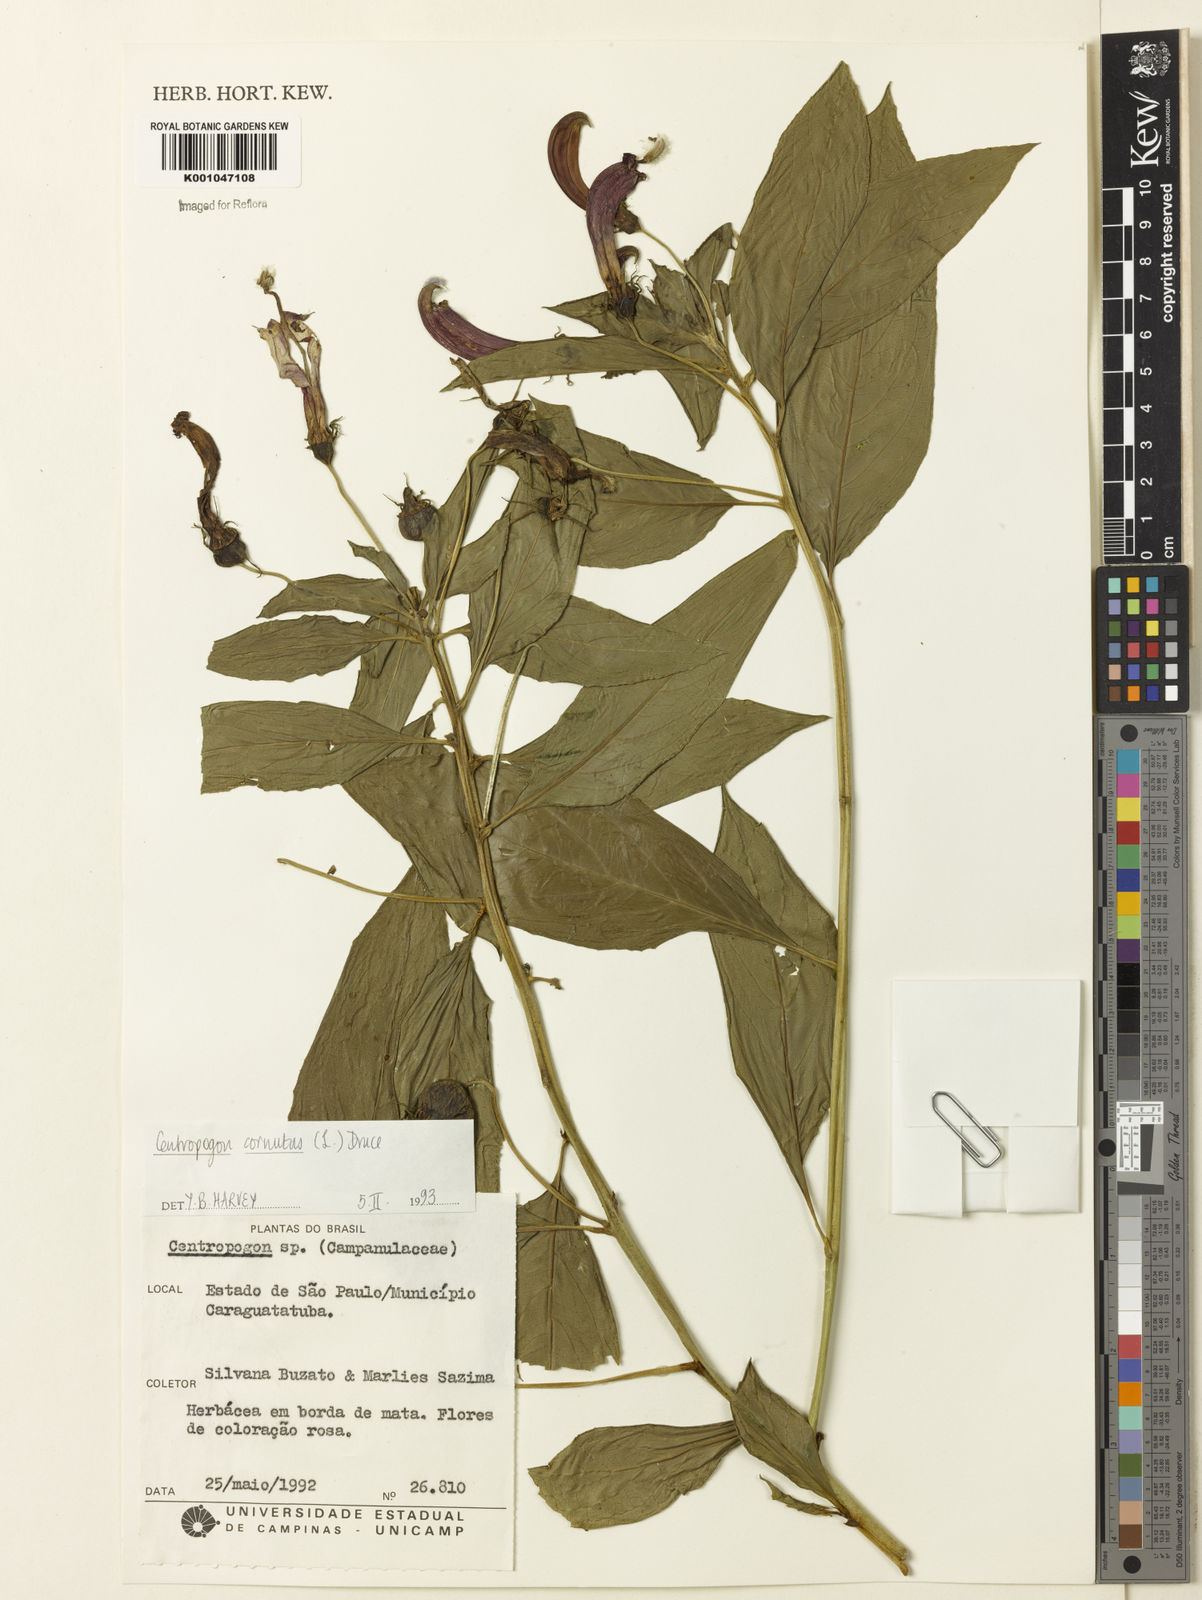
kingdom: Plantae
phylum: Tracheophyta
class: Magnoliopsida
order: Asterales
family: Campanulaceae
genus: Centropogon
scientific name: Centropogon cornutus
